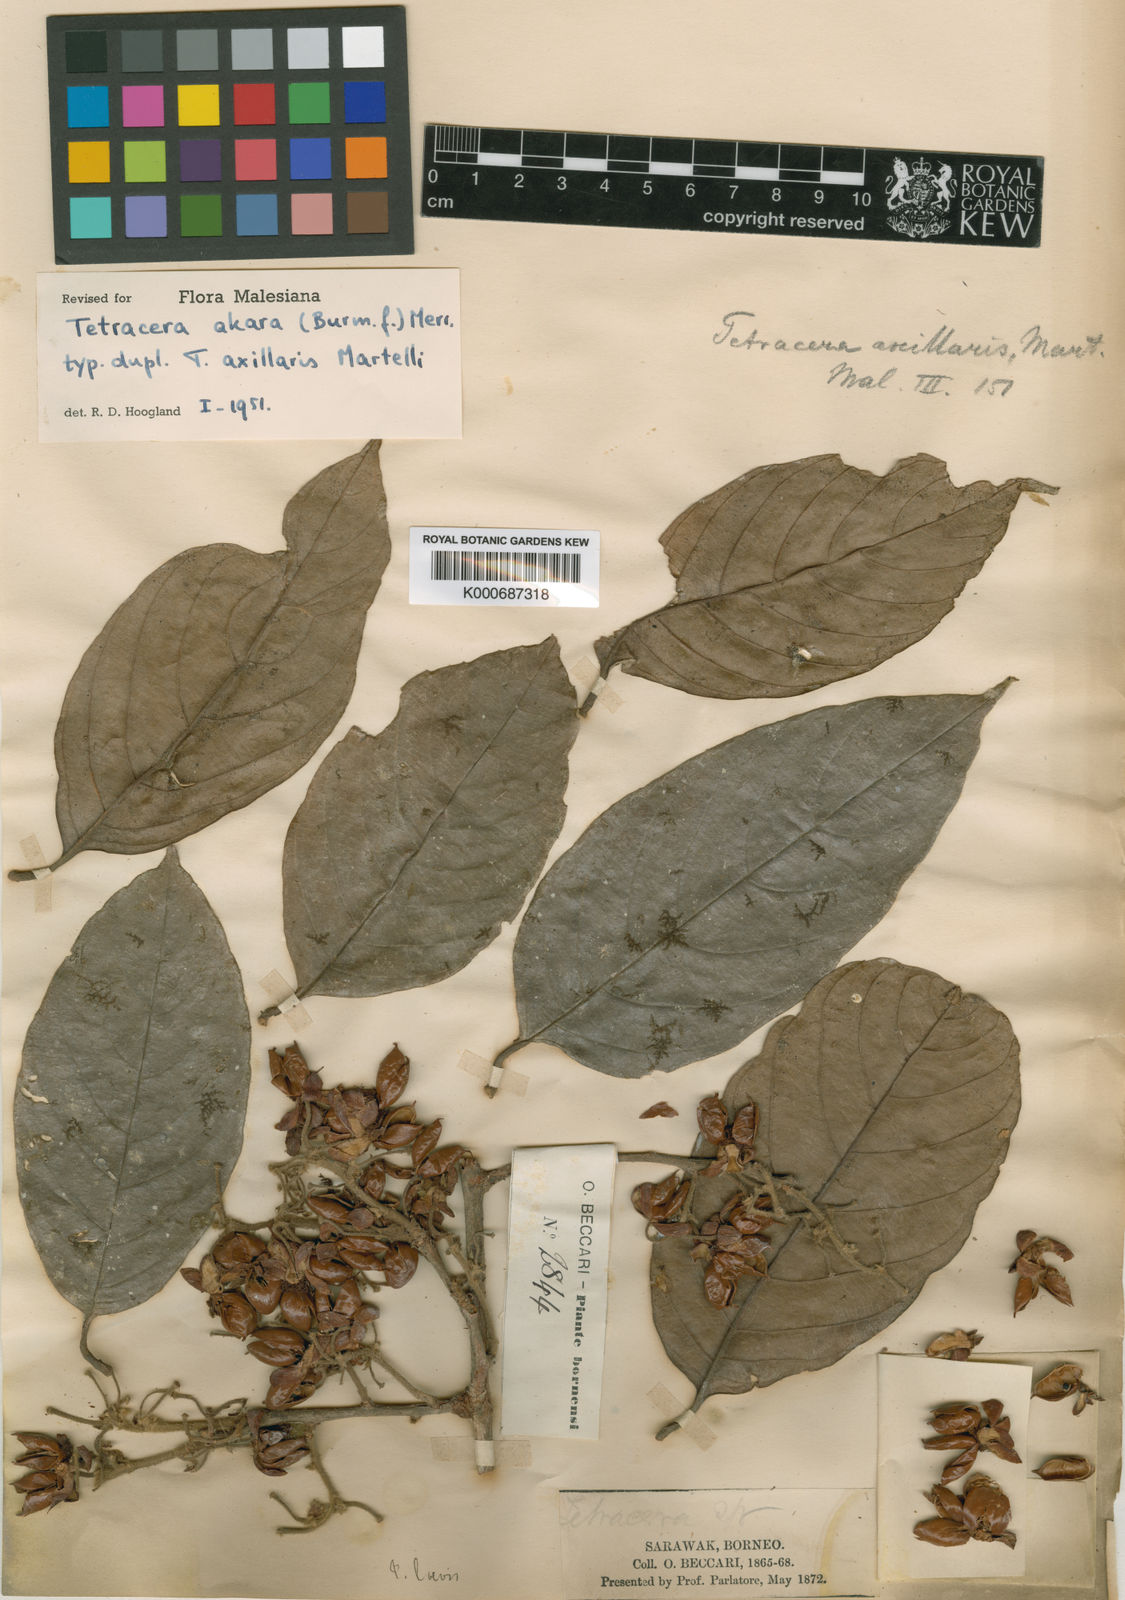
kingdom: Plantae
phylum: Tracheophyta
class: Magnoliopsida
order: Dilleniales
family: Dilleniaceae
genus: Tetracera
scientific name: Tetracera akara
